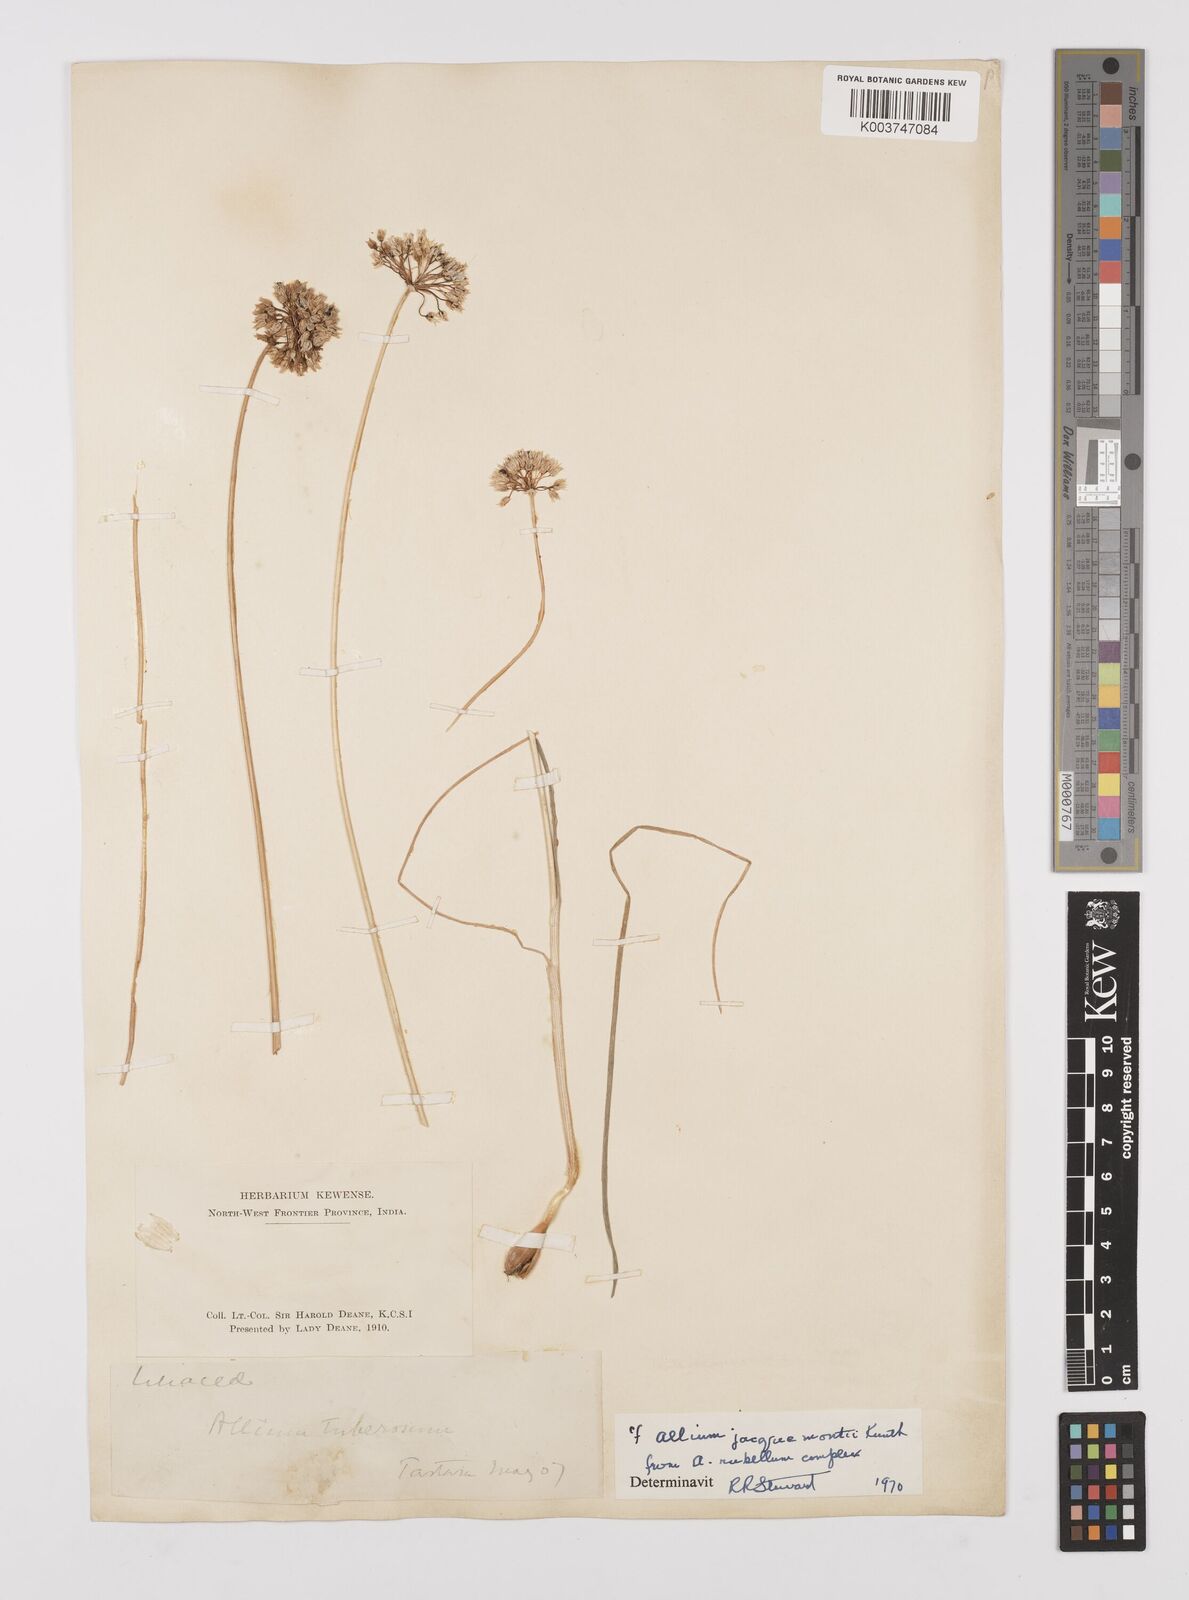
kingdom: Plantae
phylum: Tracheophyta
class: Liliopsida
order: Asparagales
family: Amaryllidaceae
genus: Allium
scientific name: Allium rubellum
